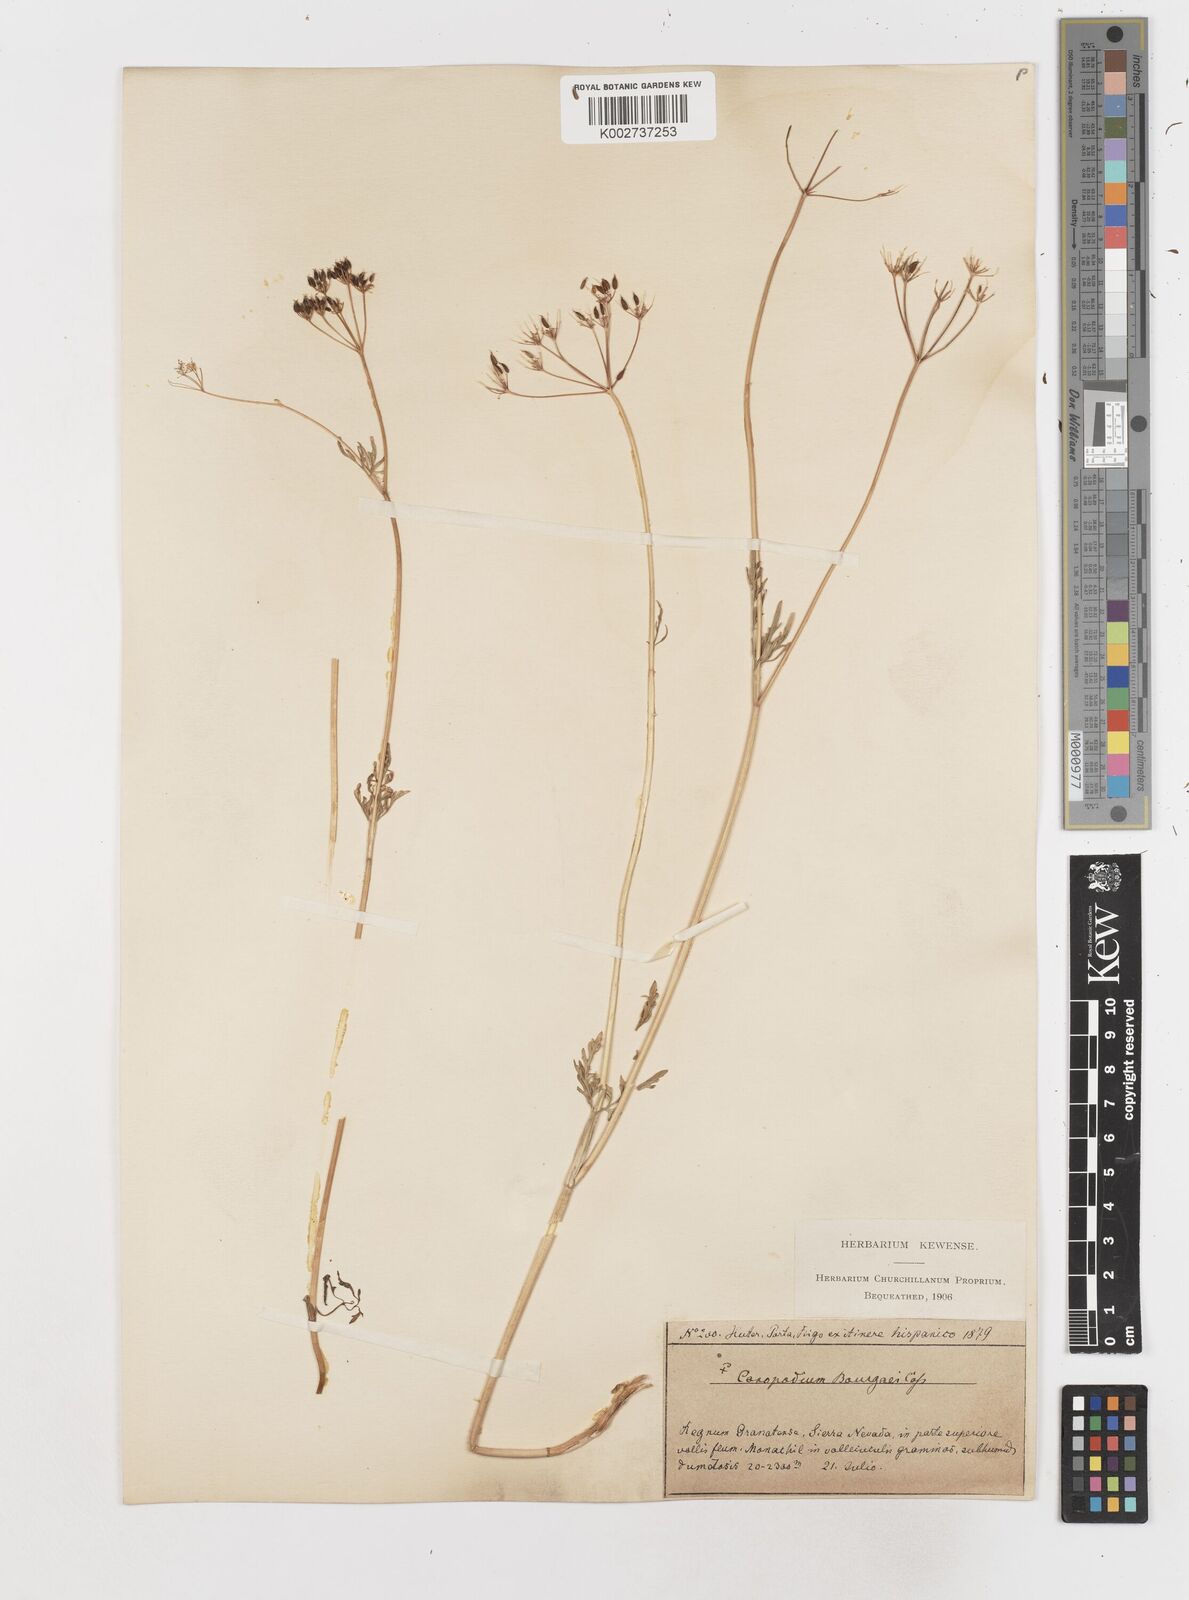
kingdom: Plantae
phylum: Tracheophyta
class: Magnoliopsida
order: Apiales
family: Apiaceae
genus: Conopodium
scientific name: Conopodium pyrenaeum
